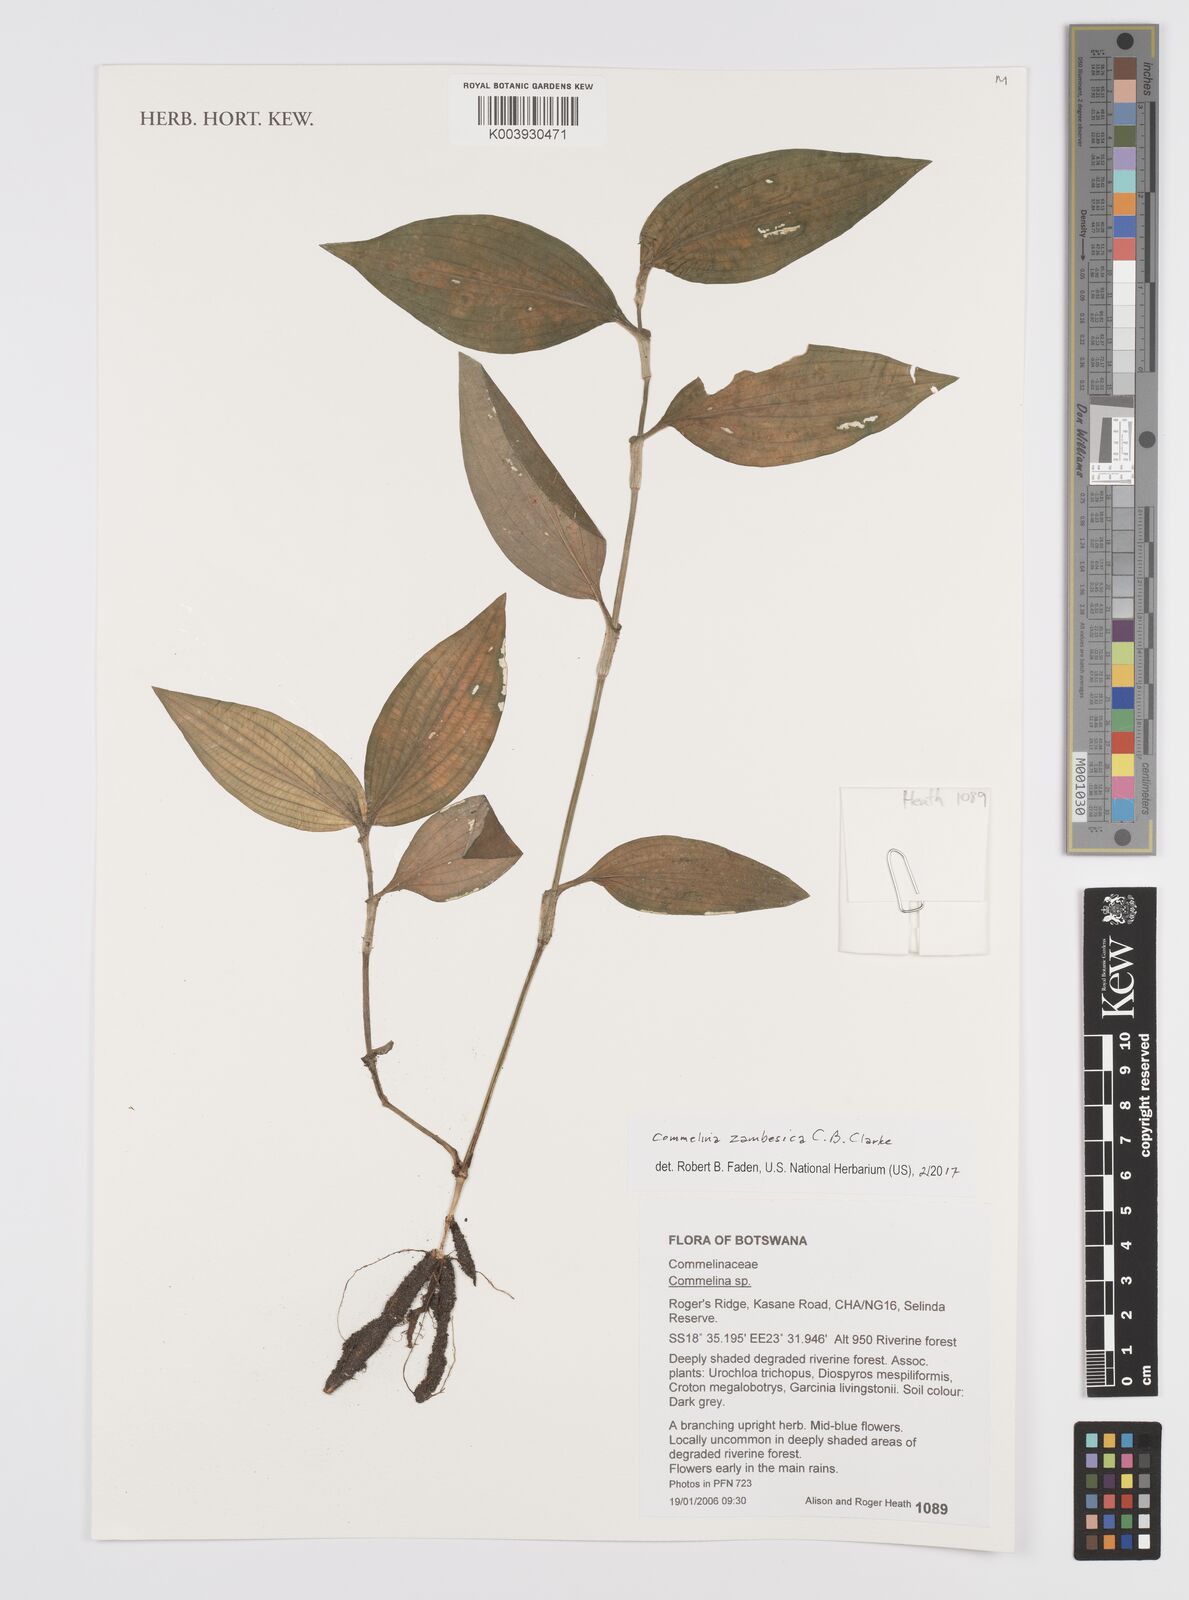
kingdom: Plantae
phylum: Tracheophyta
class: Liliopsida
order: Commelinales
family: Commelinaceae
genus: Commelina
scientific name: Commelina zambesica
